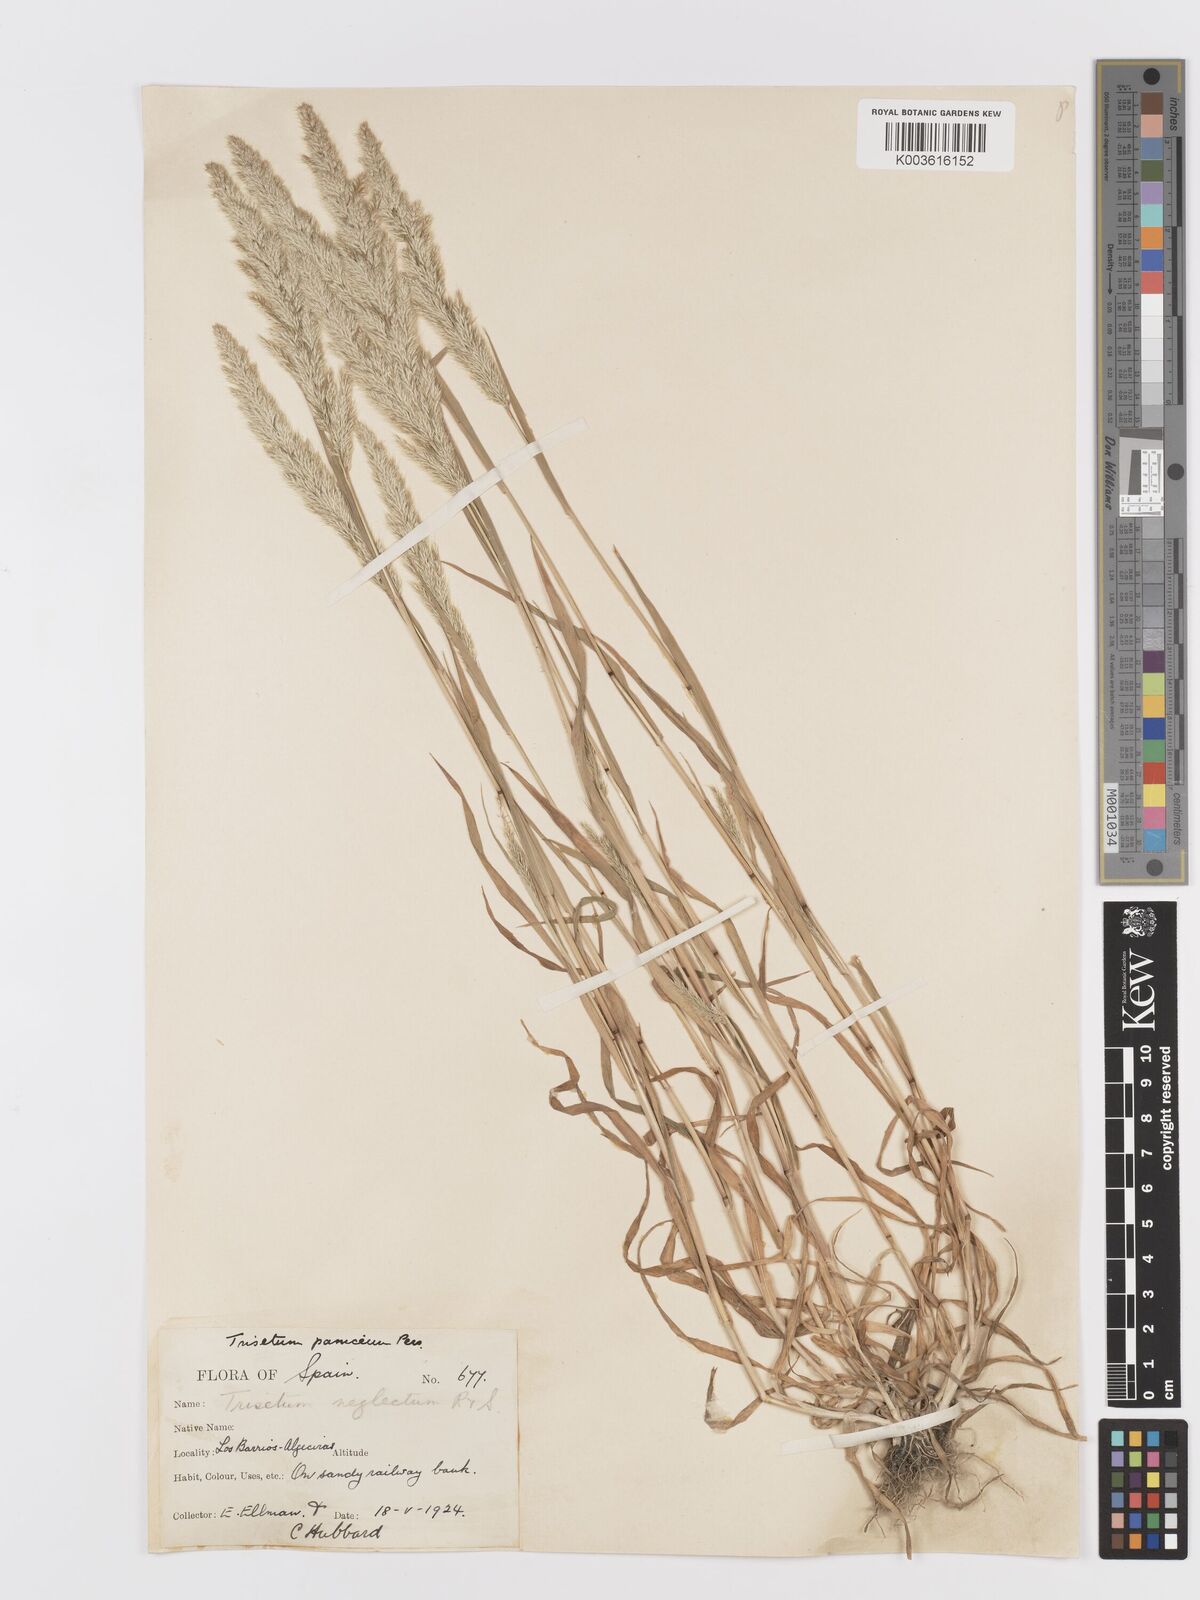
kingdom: Plantae
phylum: Tracheophyta
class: Liliopsida
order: Poales
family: Poaceae
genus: Trisetaria
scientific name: Trisetaria panicea
